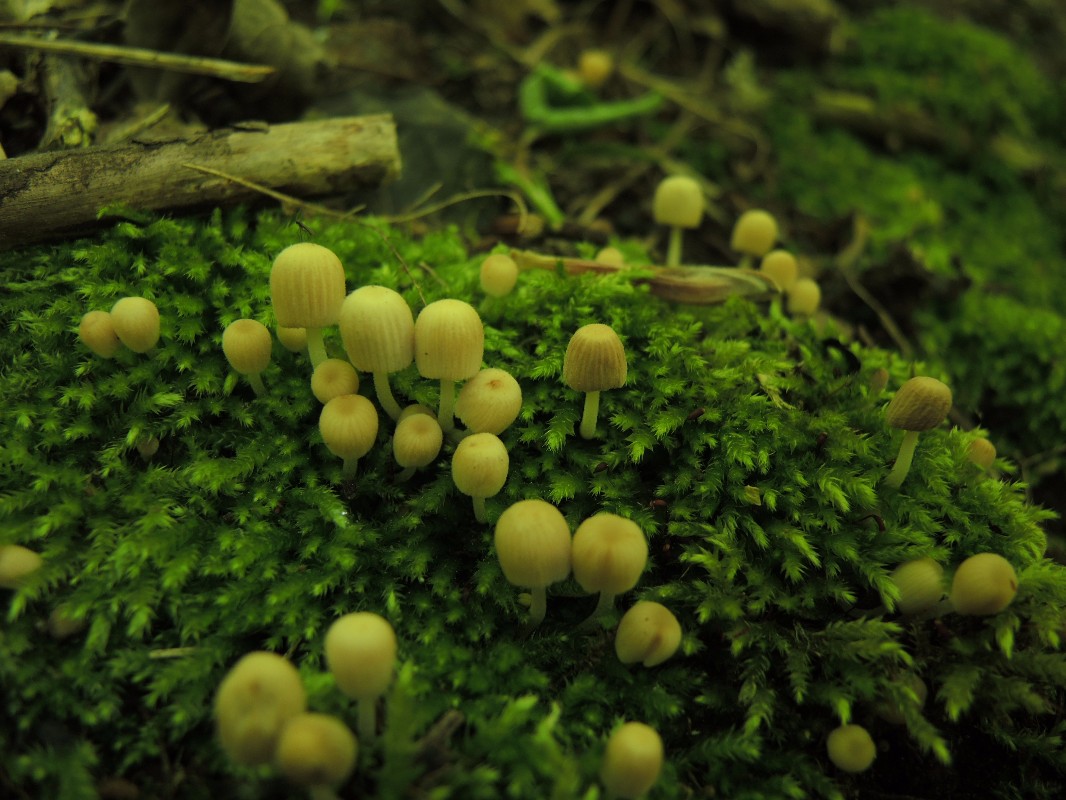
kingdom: Fungi
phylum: Basidiomycota
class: Agaricomycetes
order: Agaricales
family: Psathyrellaceae
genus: Coprinellus
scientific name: Coprinellus disseminatus
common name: bredsået blækhat
